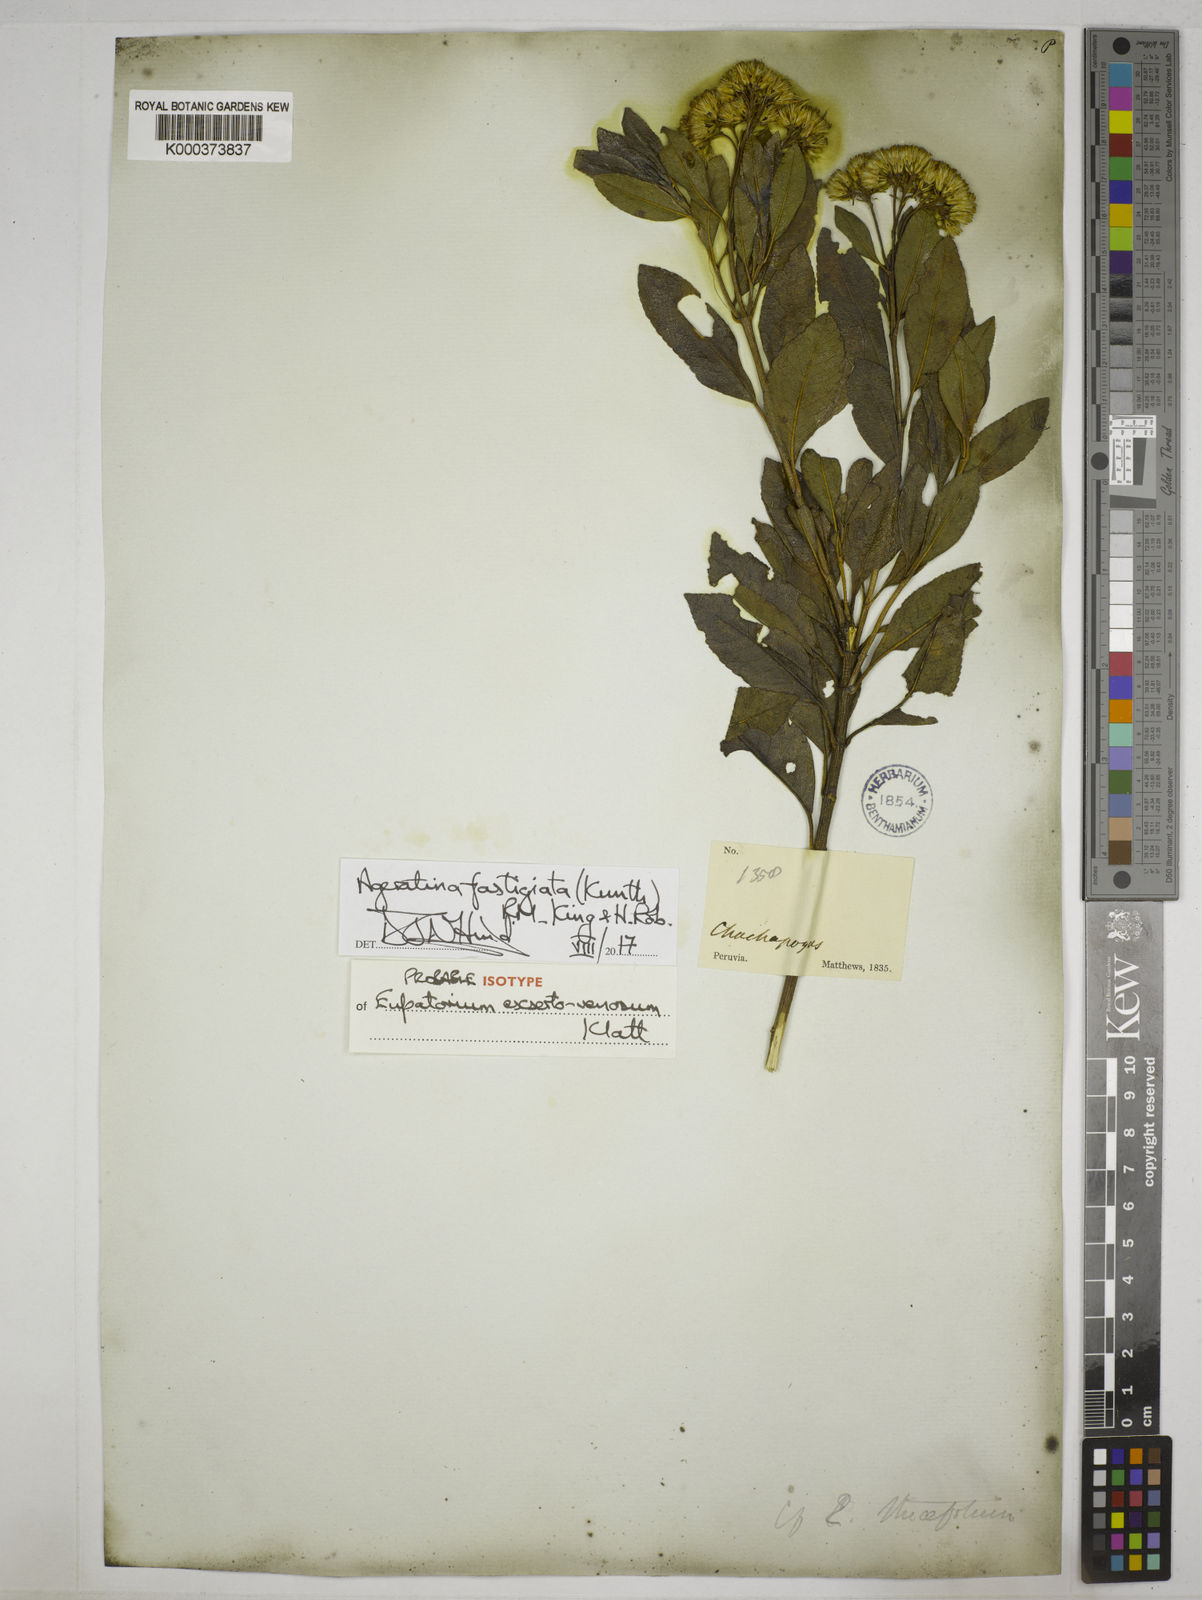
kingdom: Plantae
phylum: Tracheophyta
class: Magnoliopsida
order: Asterales
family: Asteraceae
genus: Ageratina
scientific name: Ageratina fastigiata
